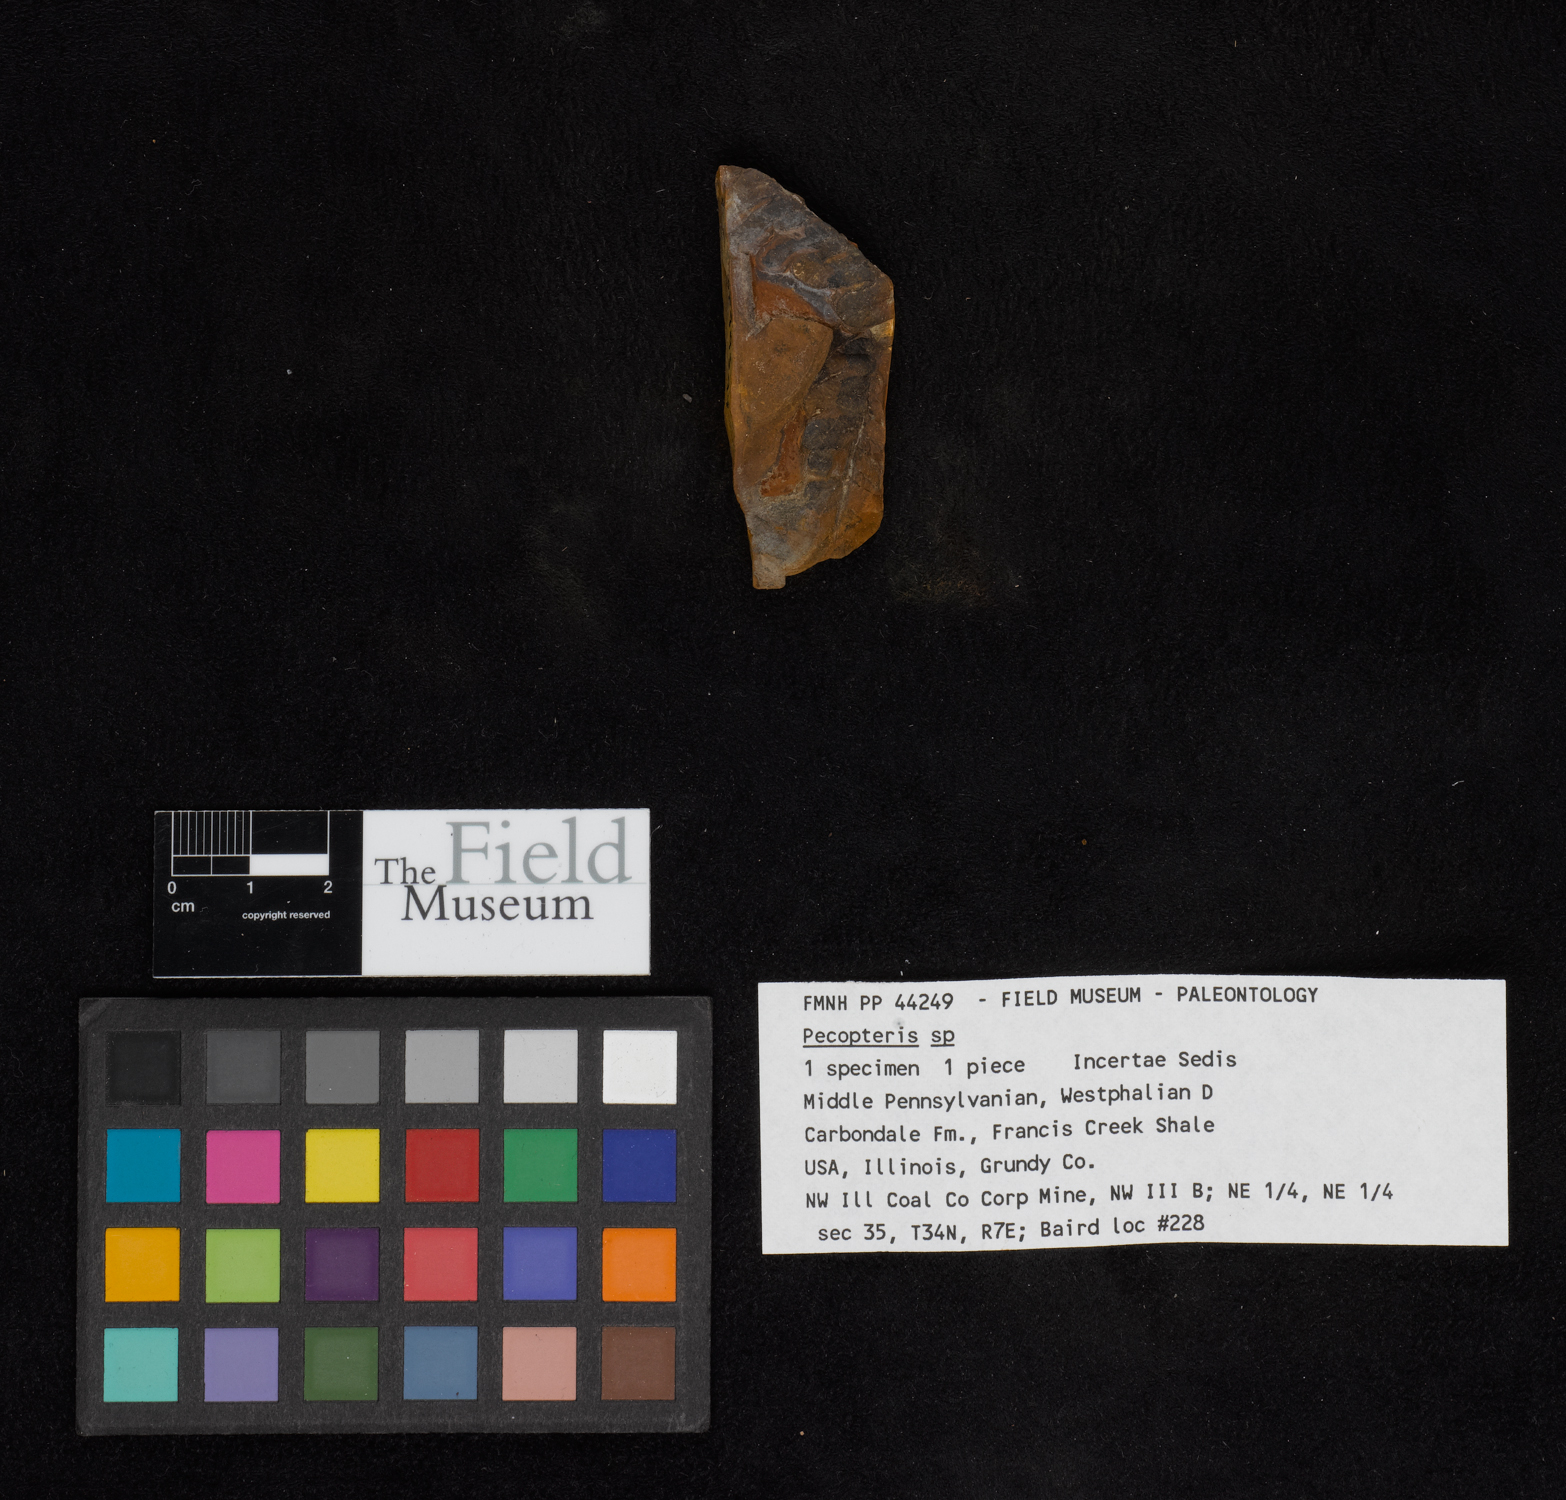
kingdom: Plantae
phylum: Tracheophyta
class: Polypodiopsida
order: Marattiales
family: Asterothecaceae
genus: Pecopteris
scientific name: Pecopteris
